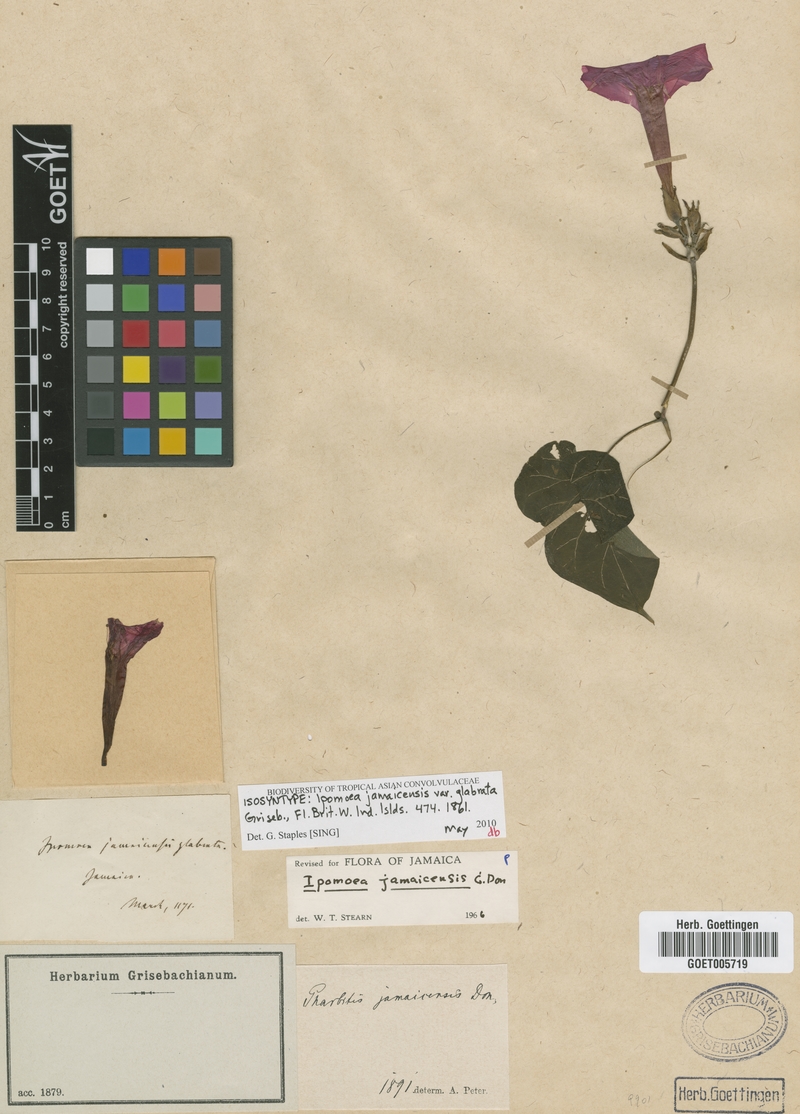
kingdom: Plantae
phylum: Tracheophyta
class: Magnoliopsida
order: Solanales
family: Convolvulaceae
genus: Ipomoea
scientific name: Ipomoea jamaicensis
